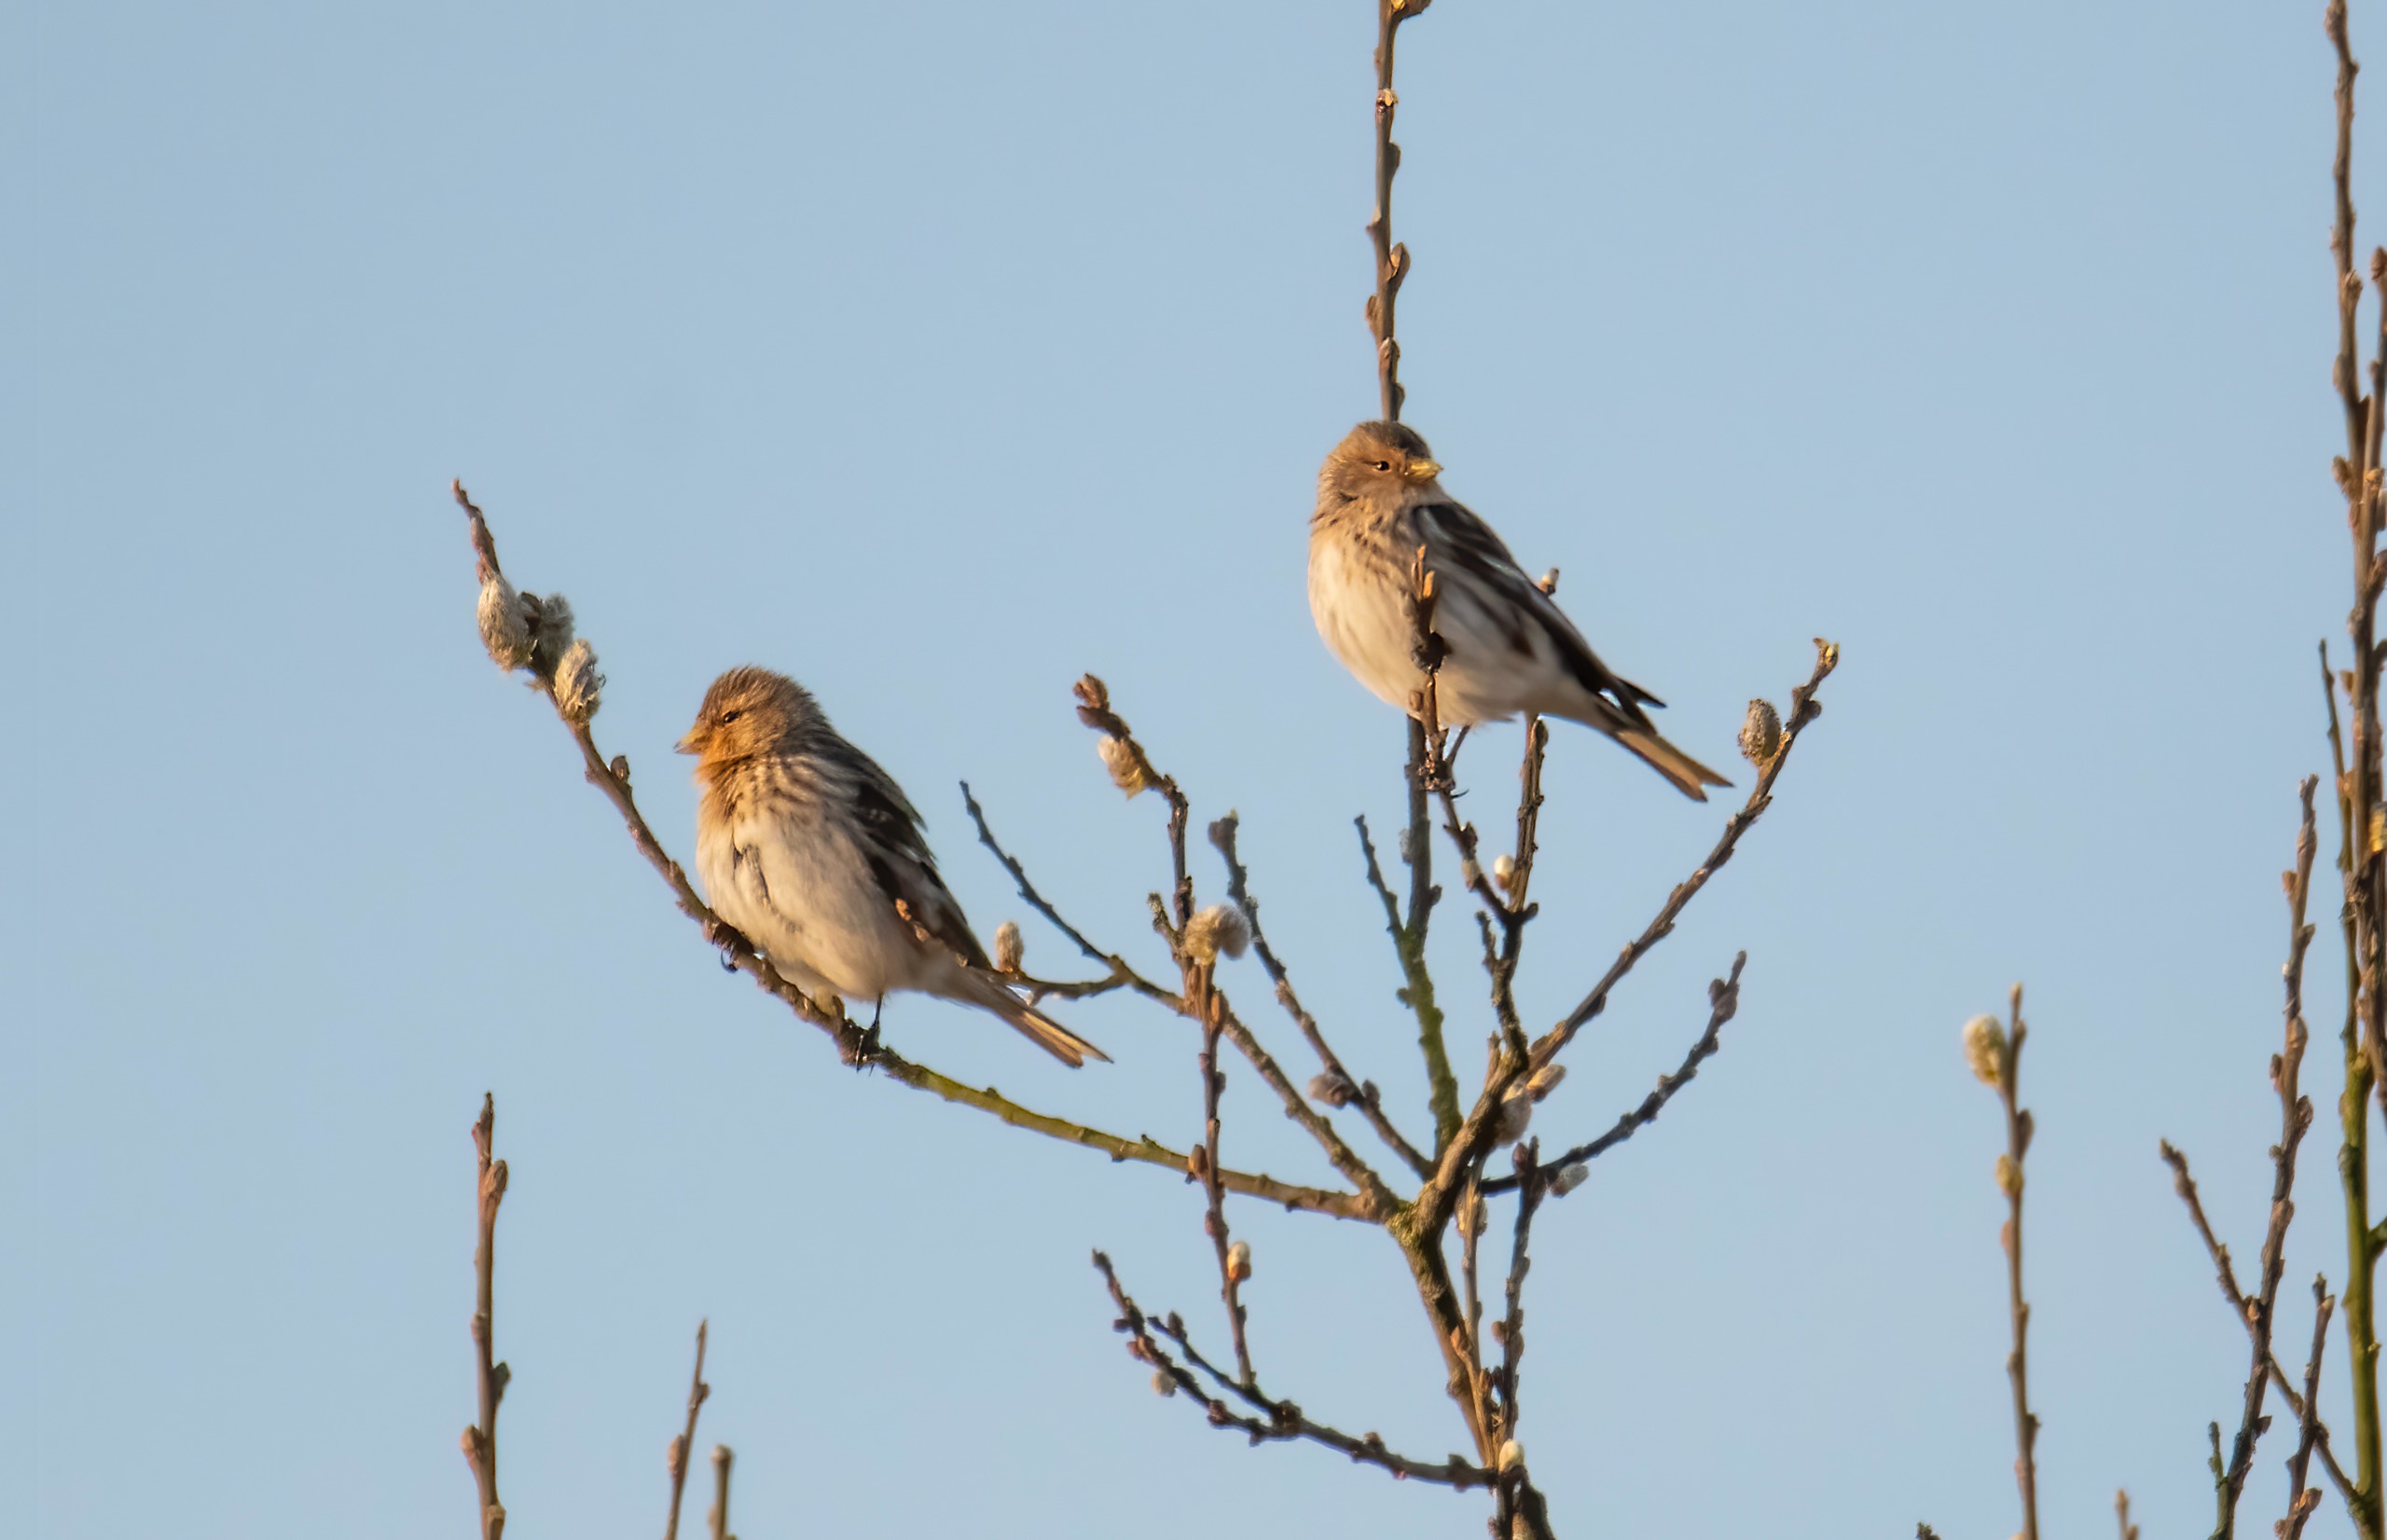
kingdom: Animalia
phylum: Chordata
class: Aves
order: Passeriformes
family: Fringillidae
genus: Linaria
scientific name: Linaria flavirostris
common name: Bjergirisk
